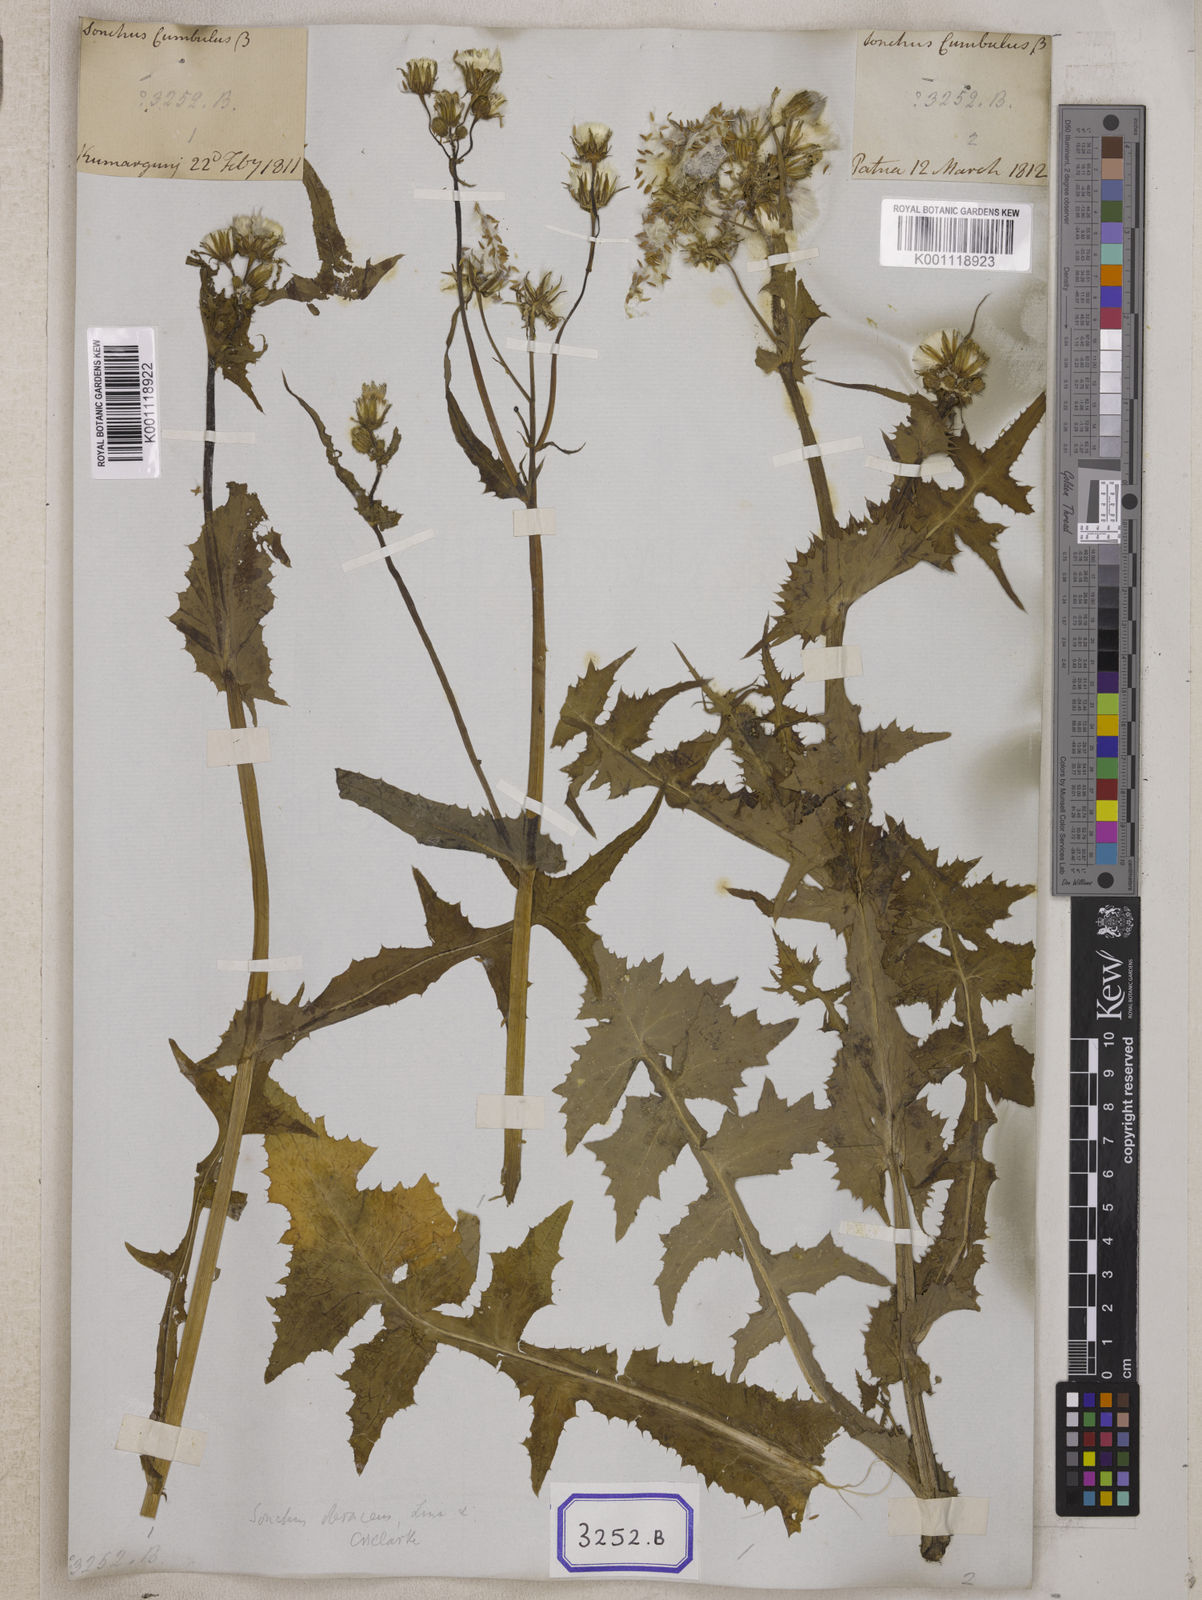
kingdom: Plantae
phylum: Tracheophyta
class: Magnoliopsida
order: Asterales
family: Asteraceae
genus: Sonchus
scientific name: Sonchus
